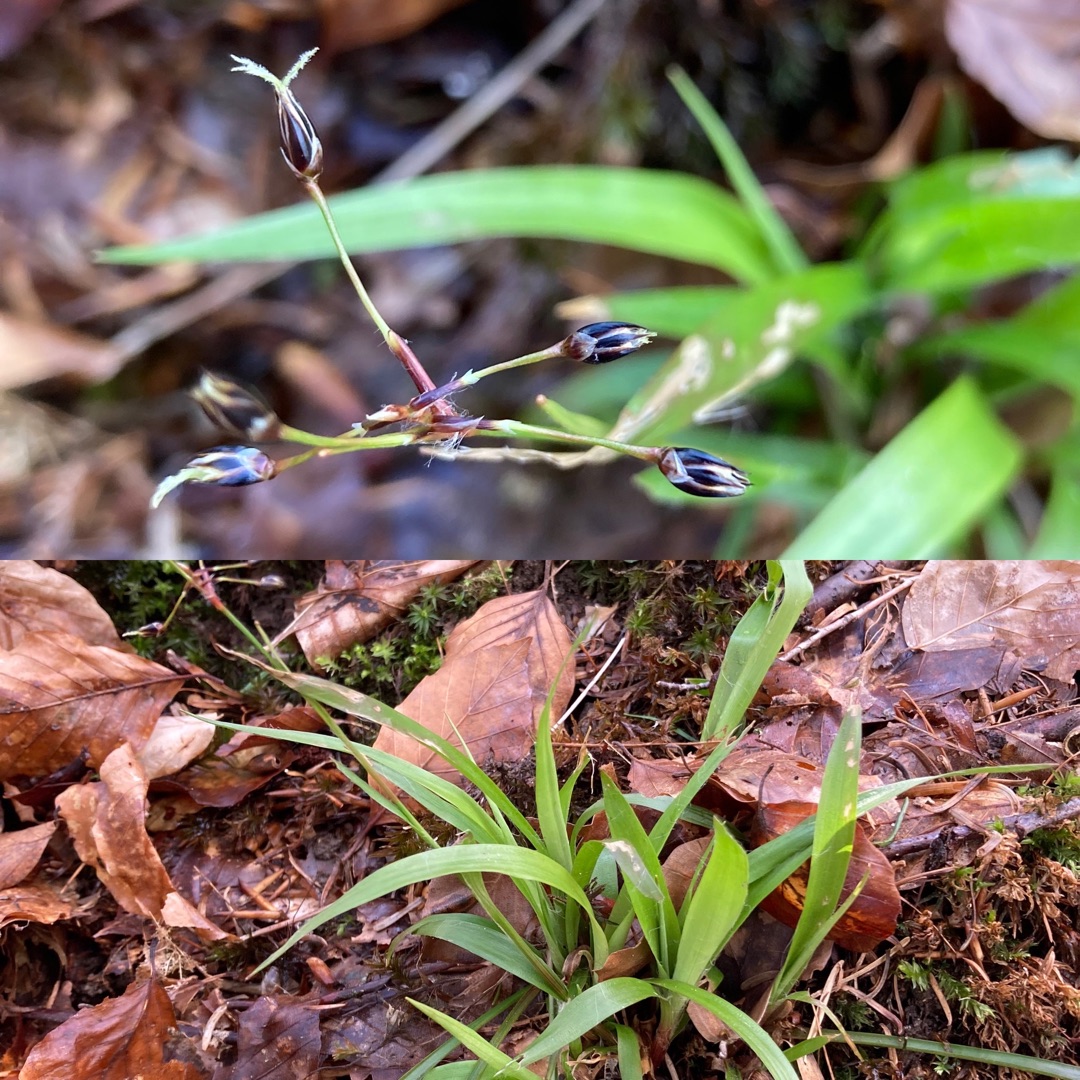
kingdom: Plantae
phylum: Tracheophyta
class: Liliopsida
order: Poales
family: Juncaceae
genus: Luzula
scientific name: Luzula pilosa
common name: Håret frytle
